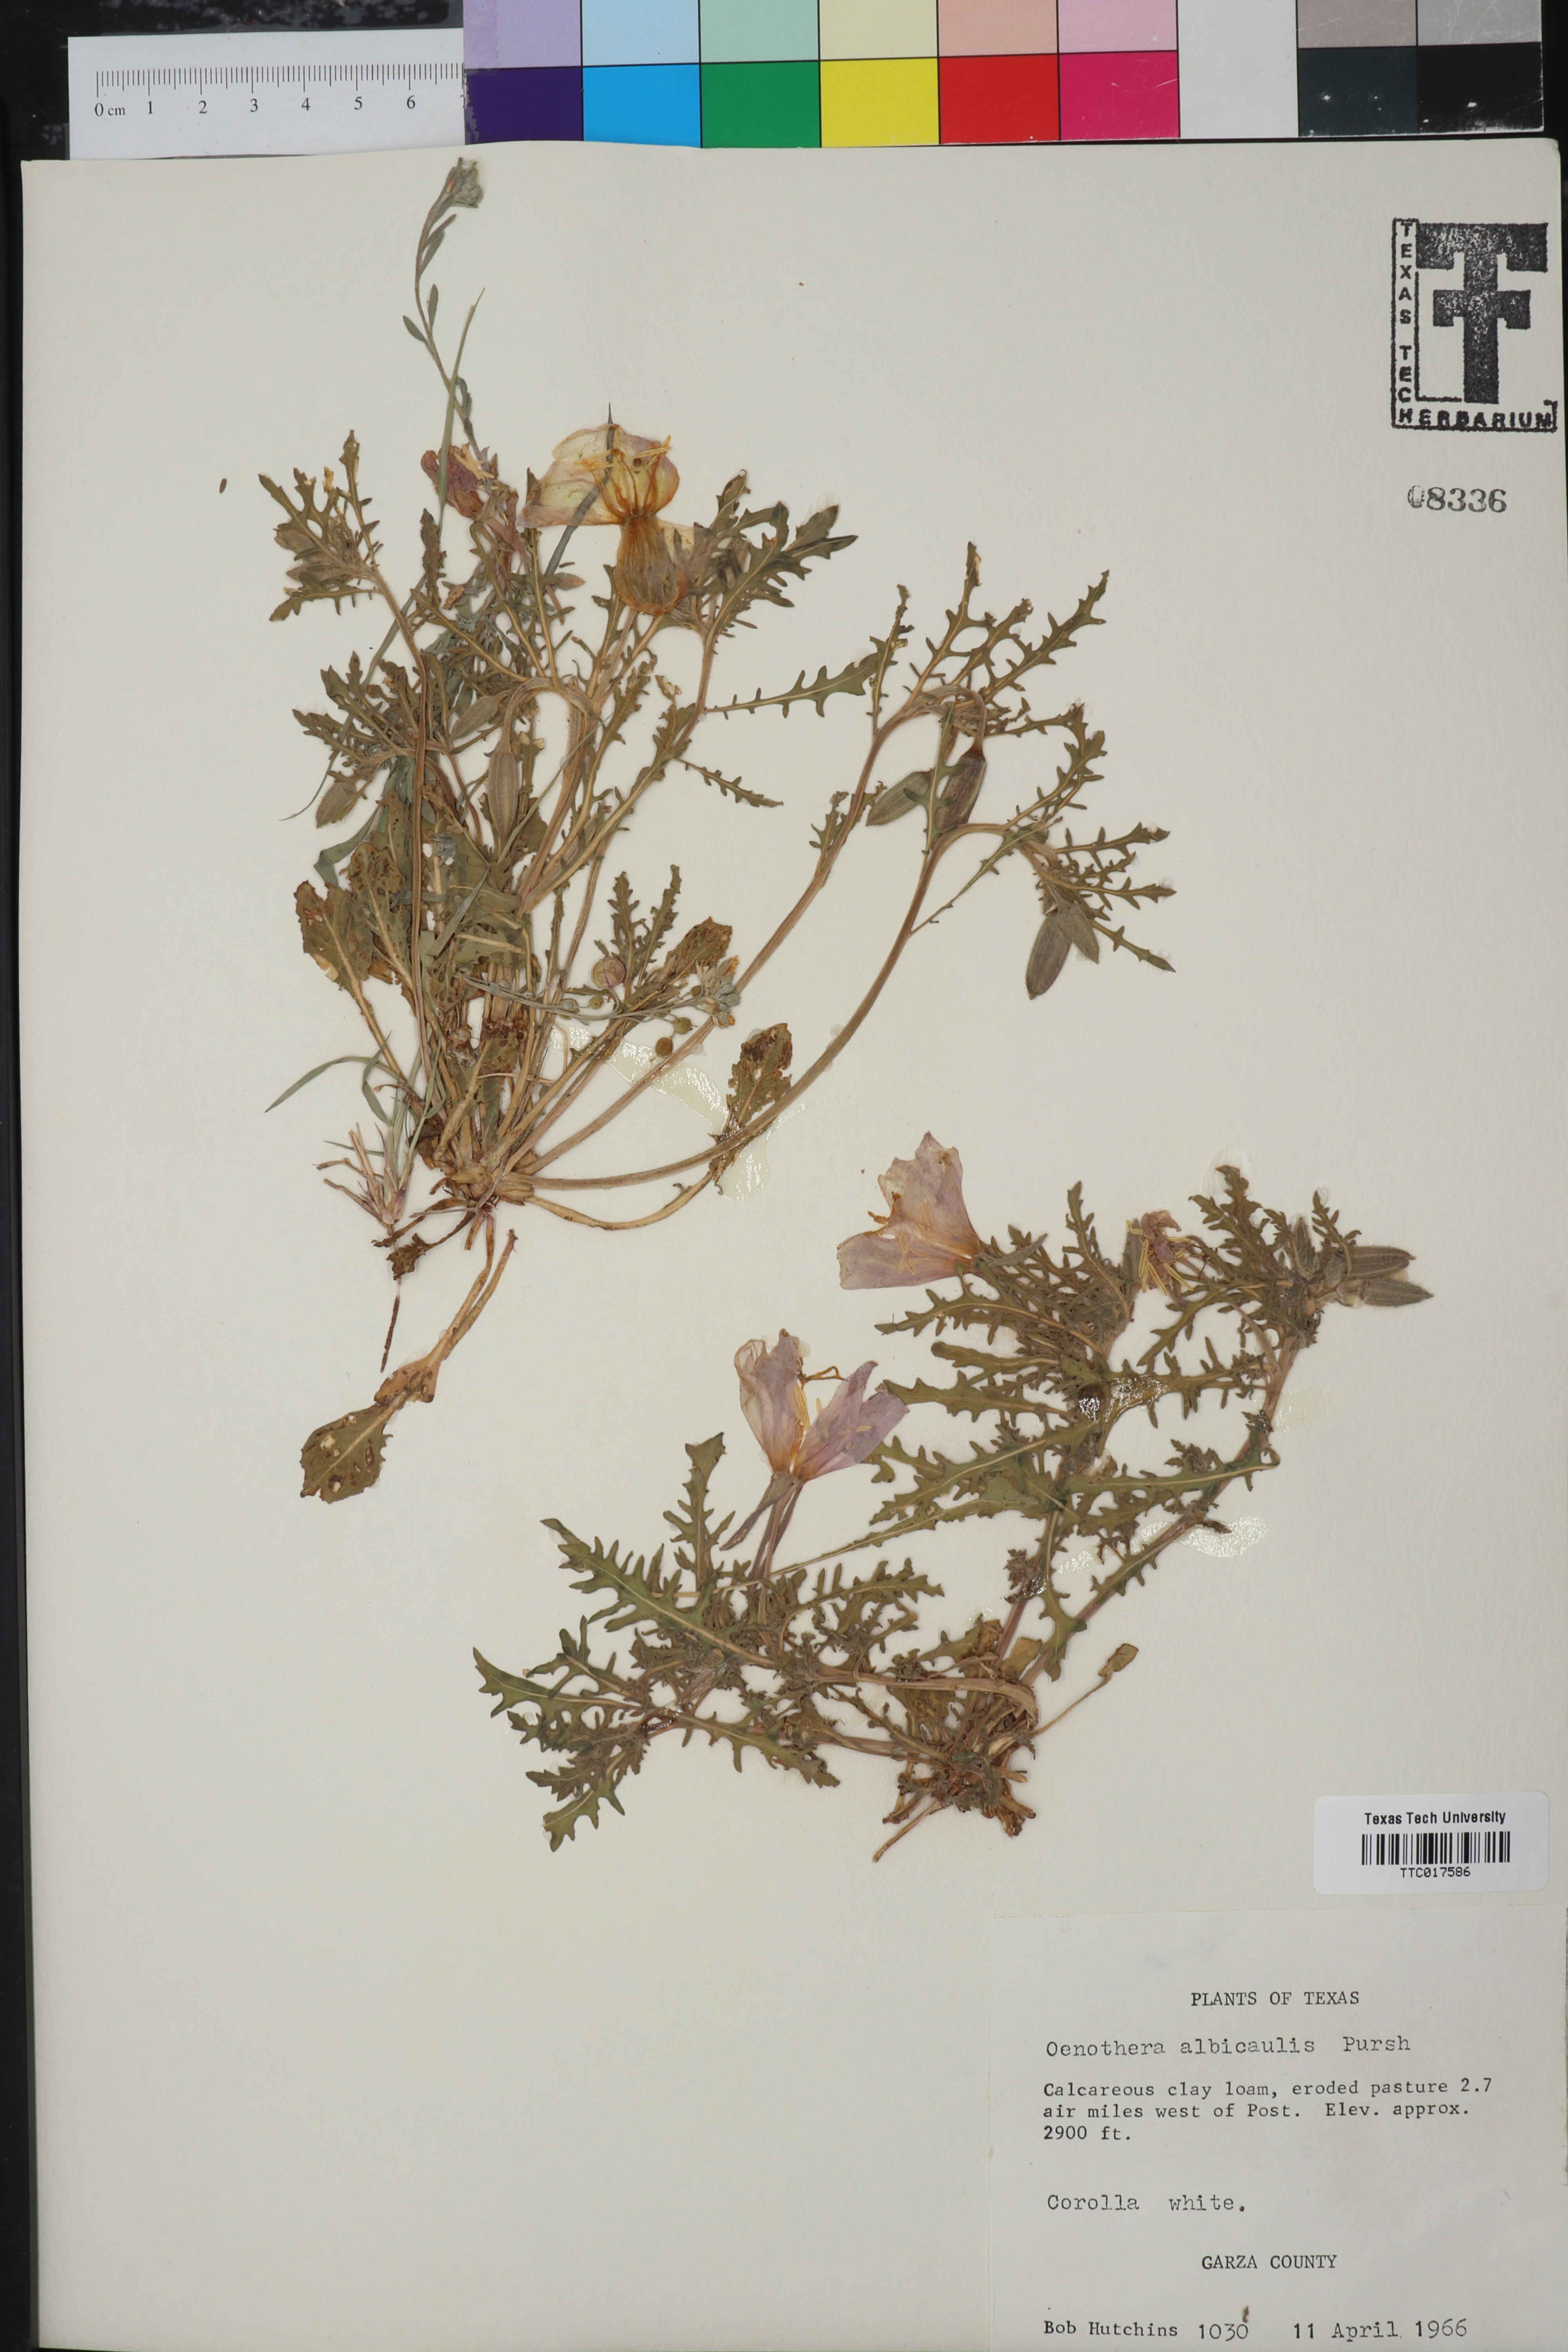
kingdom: Plantae
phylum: Tracheophyta
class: Magnoliopsida
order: Myrtales
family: Onagraceae
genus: Oenothera
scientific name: Oenothera albicaulis
